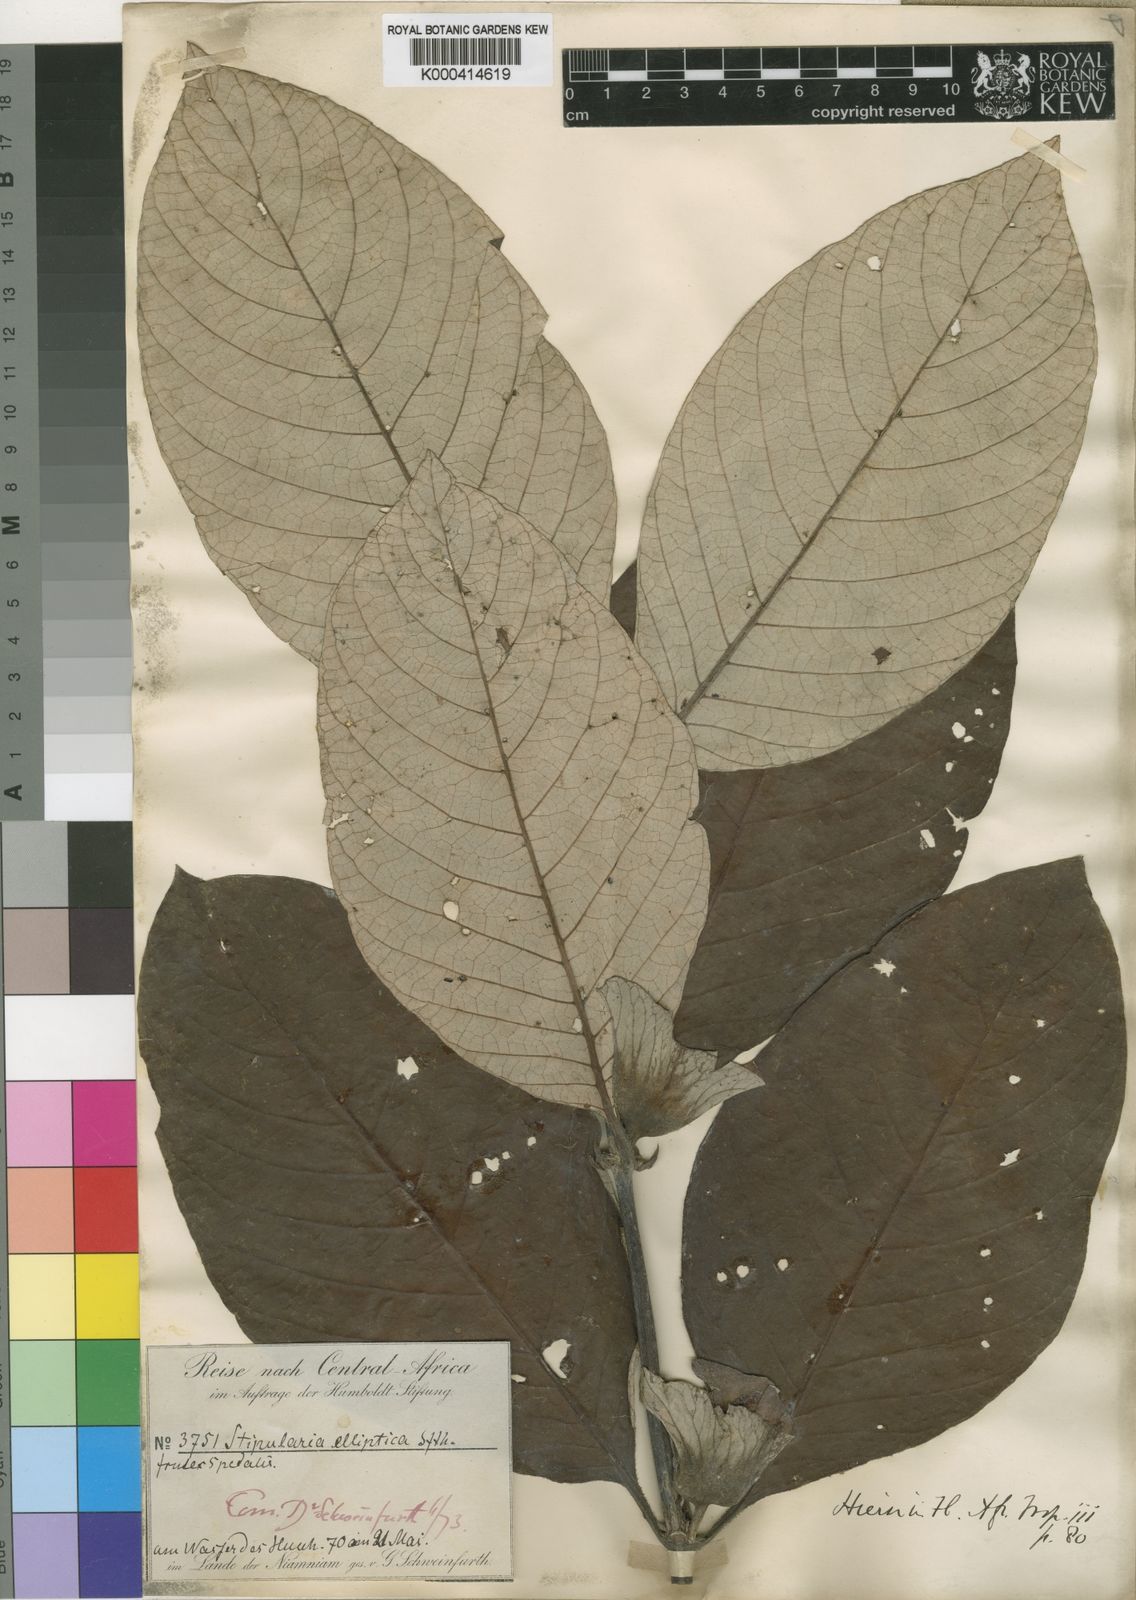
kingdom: Plantae
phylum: Tracheophyta
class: Magnoliopsida
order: Gentianales
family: Rubiaceae
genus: Stipularia
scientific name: Stipularia elliptica
